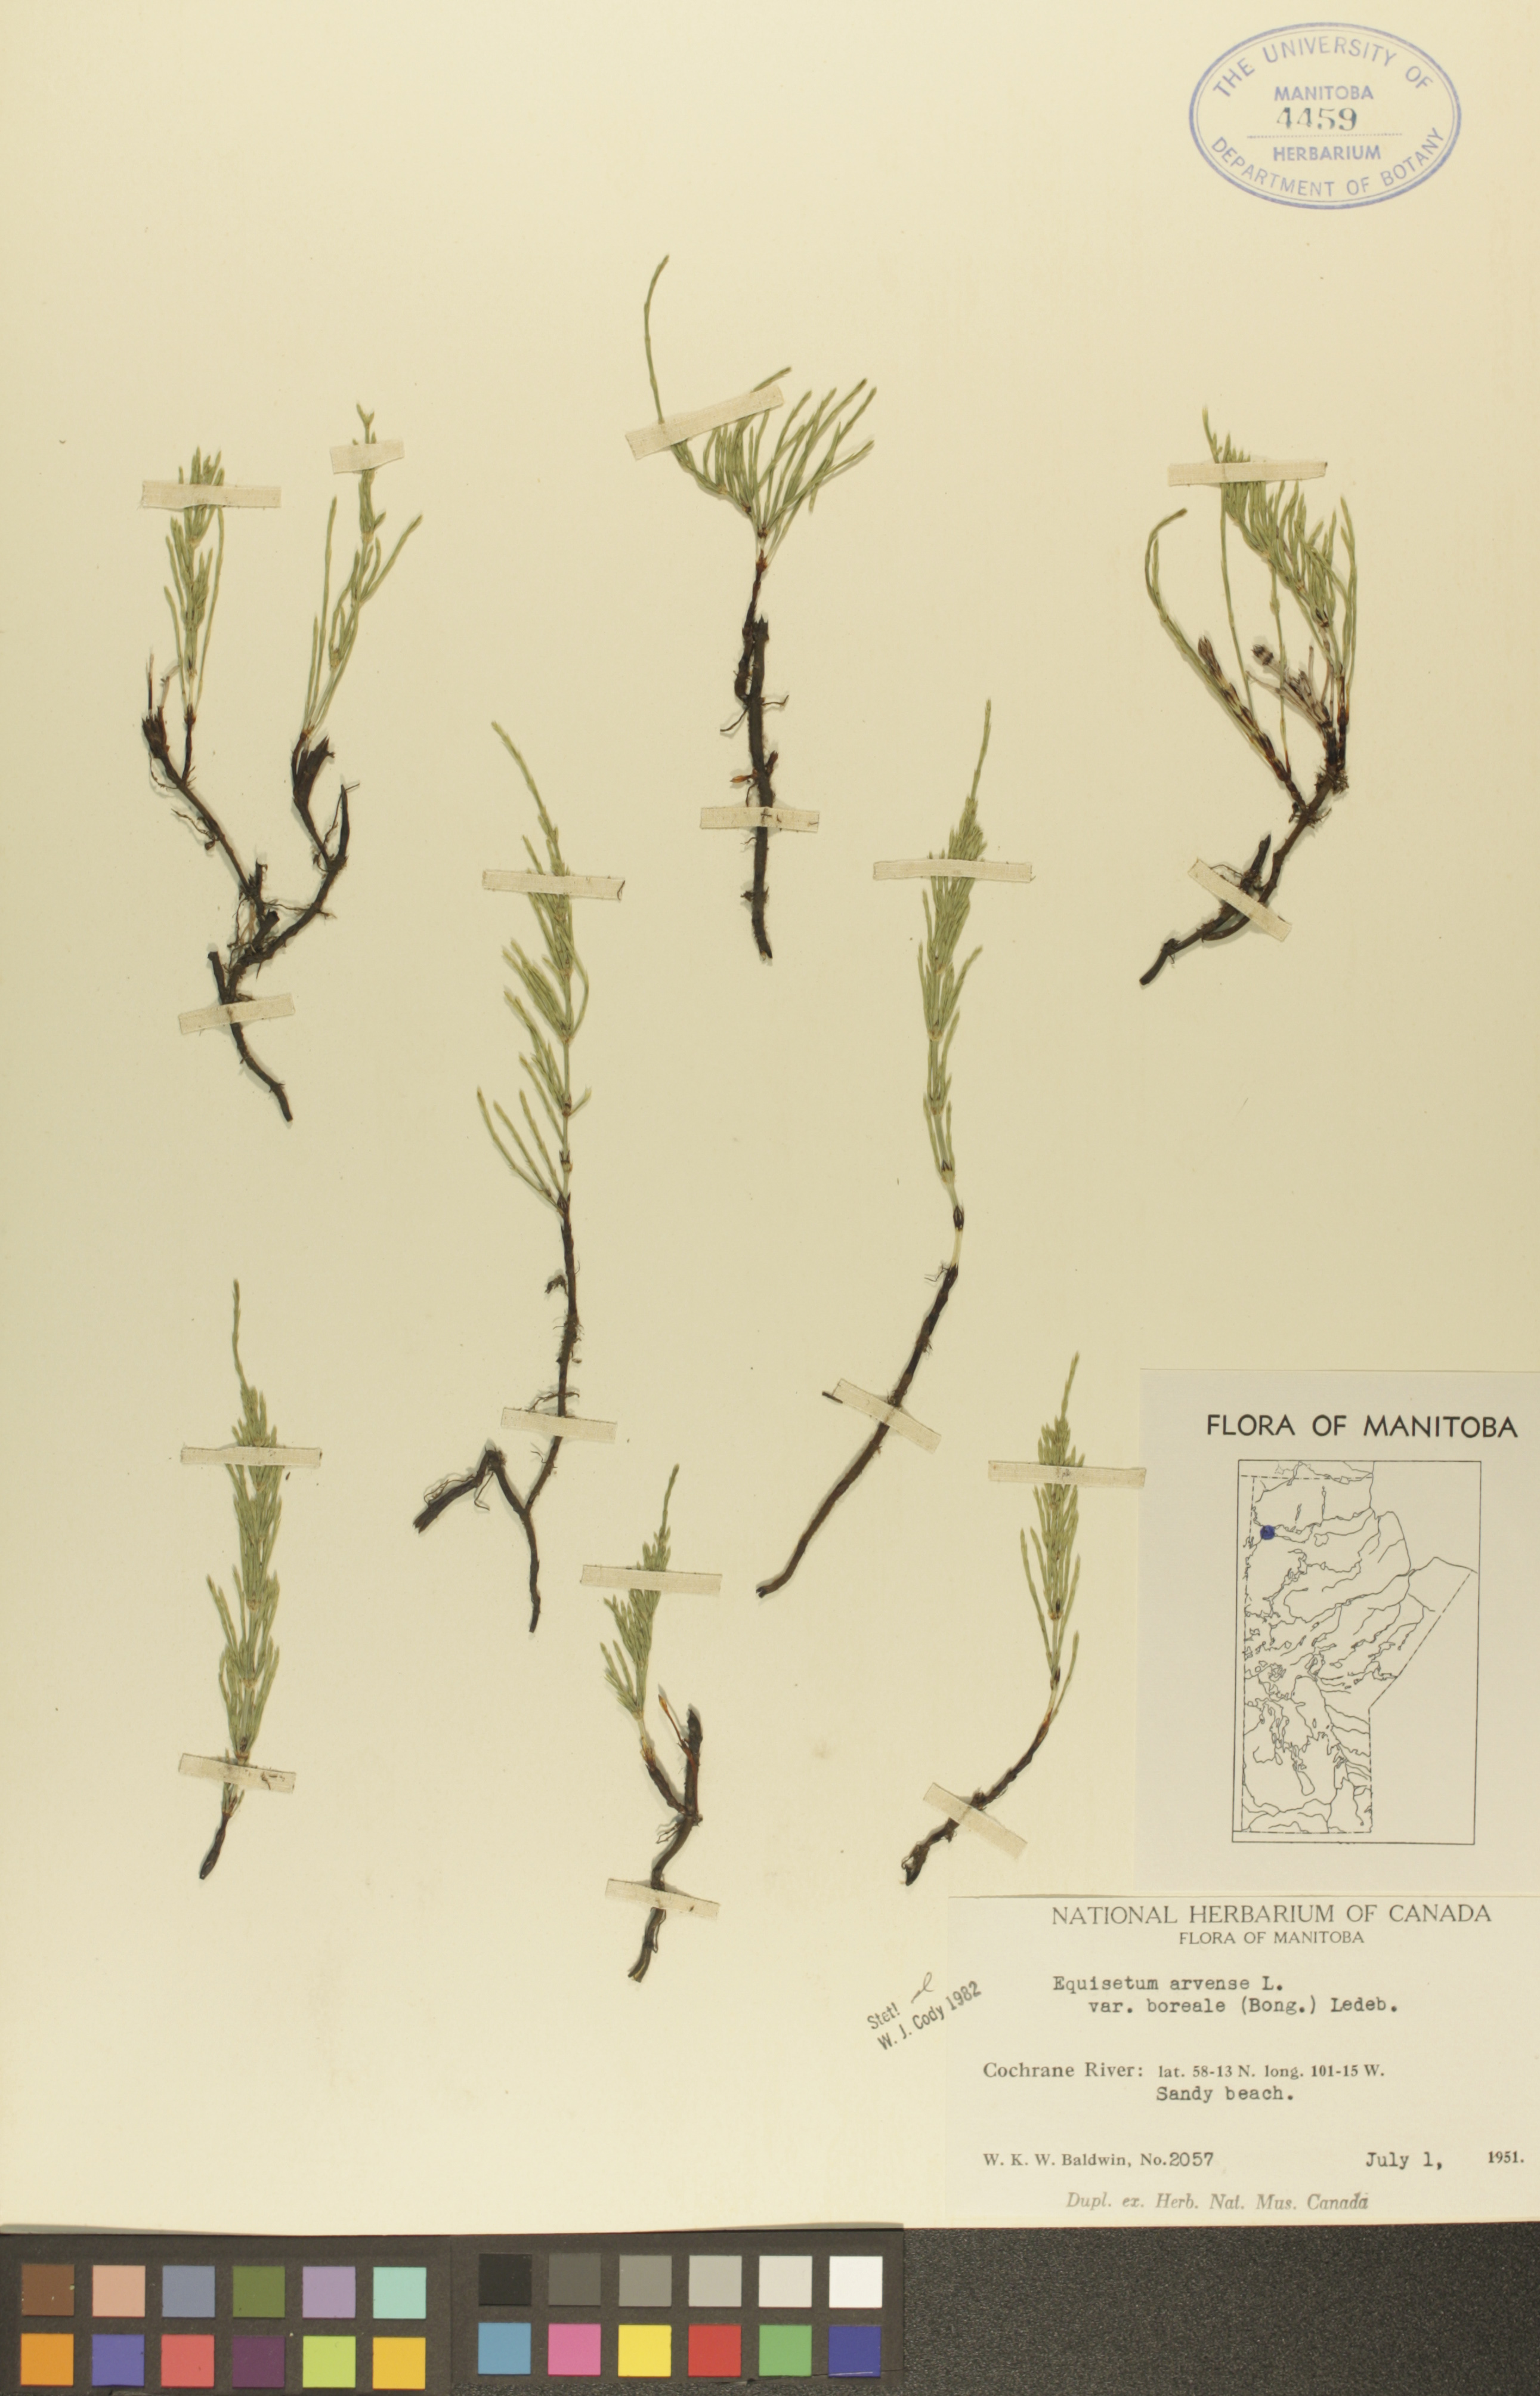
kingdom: Plantae
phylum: Tracheophyta
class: Polypodiopsida
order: Equisetales
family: Equisetaceae
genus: Equisetum
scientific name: Equisetum arvense
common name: Field horsetail
